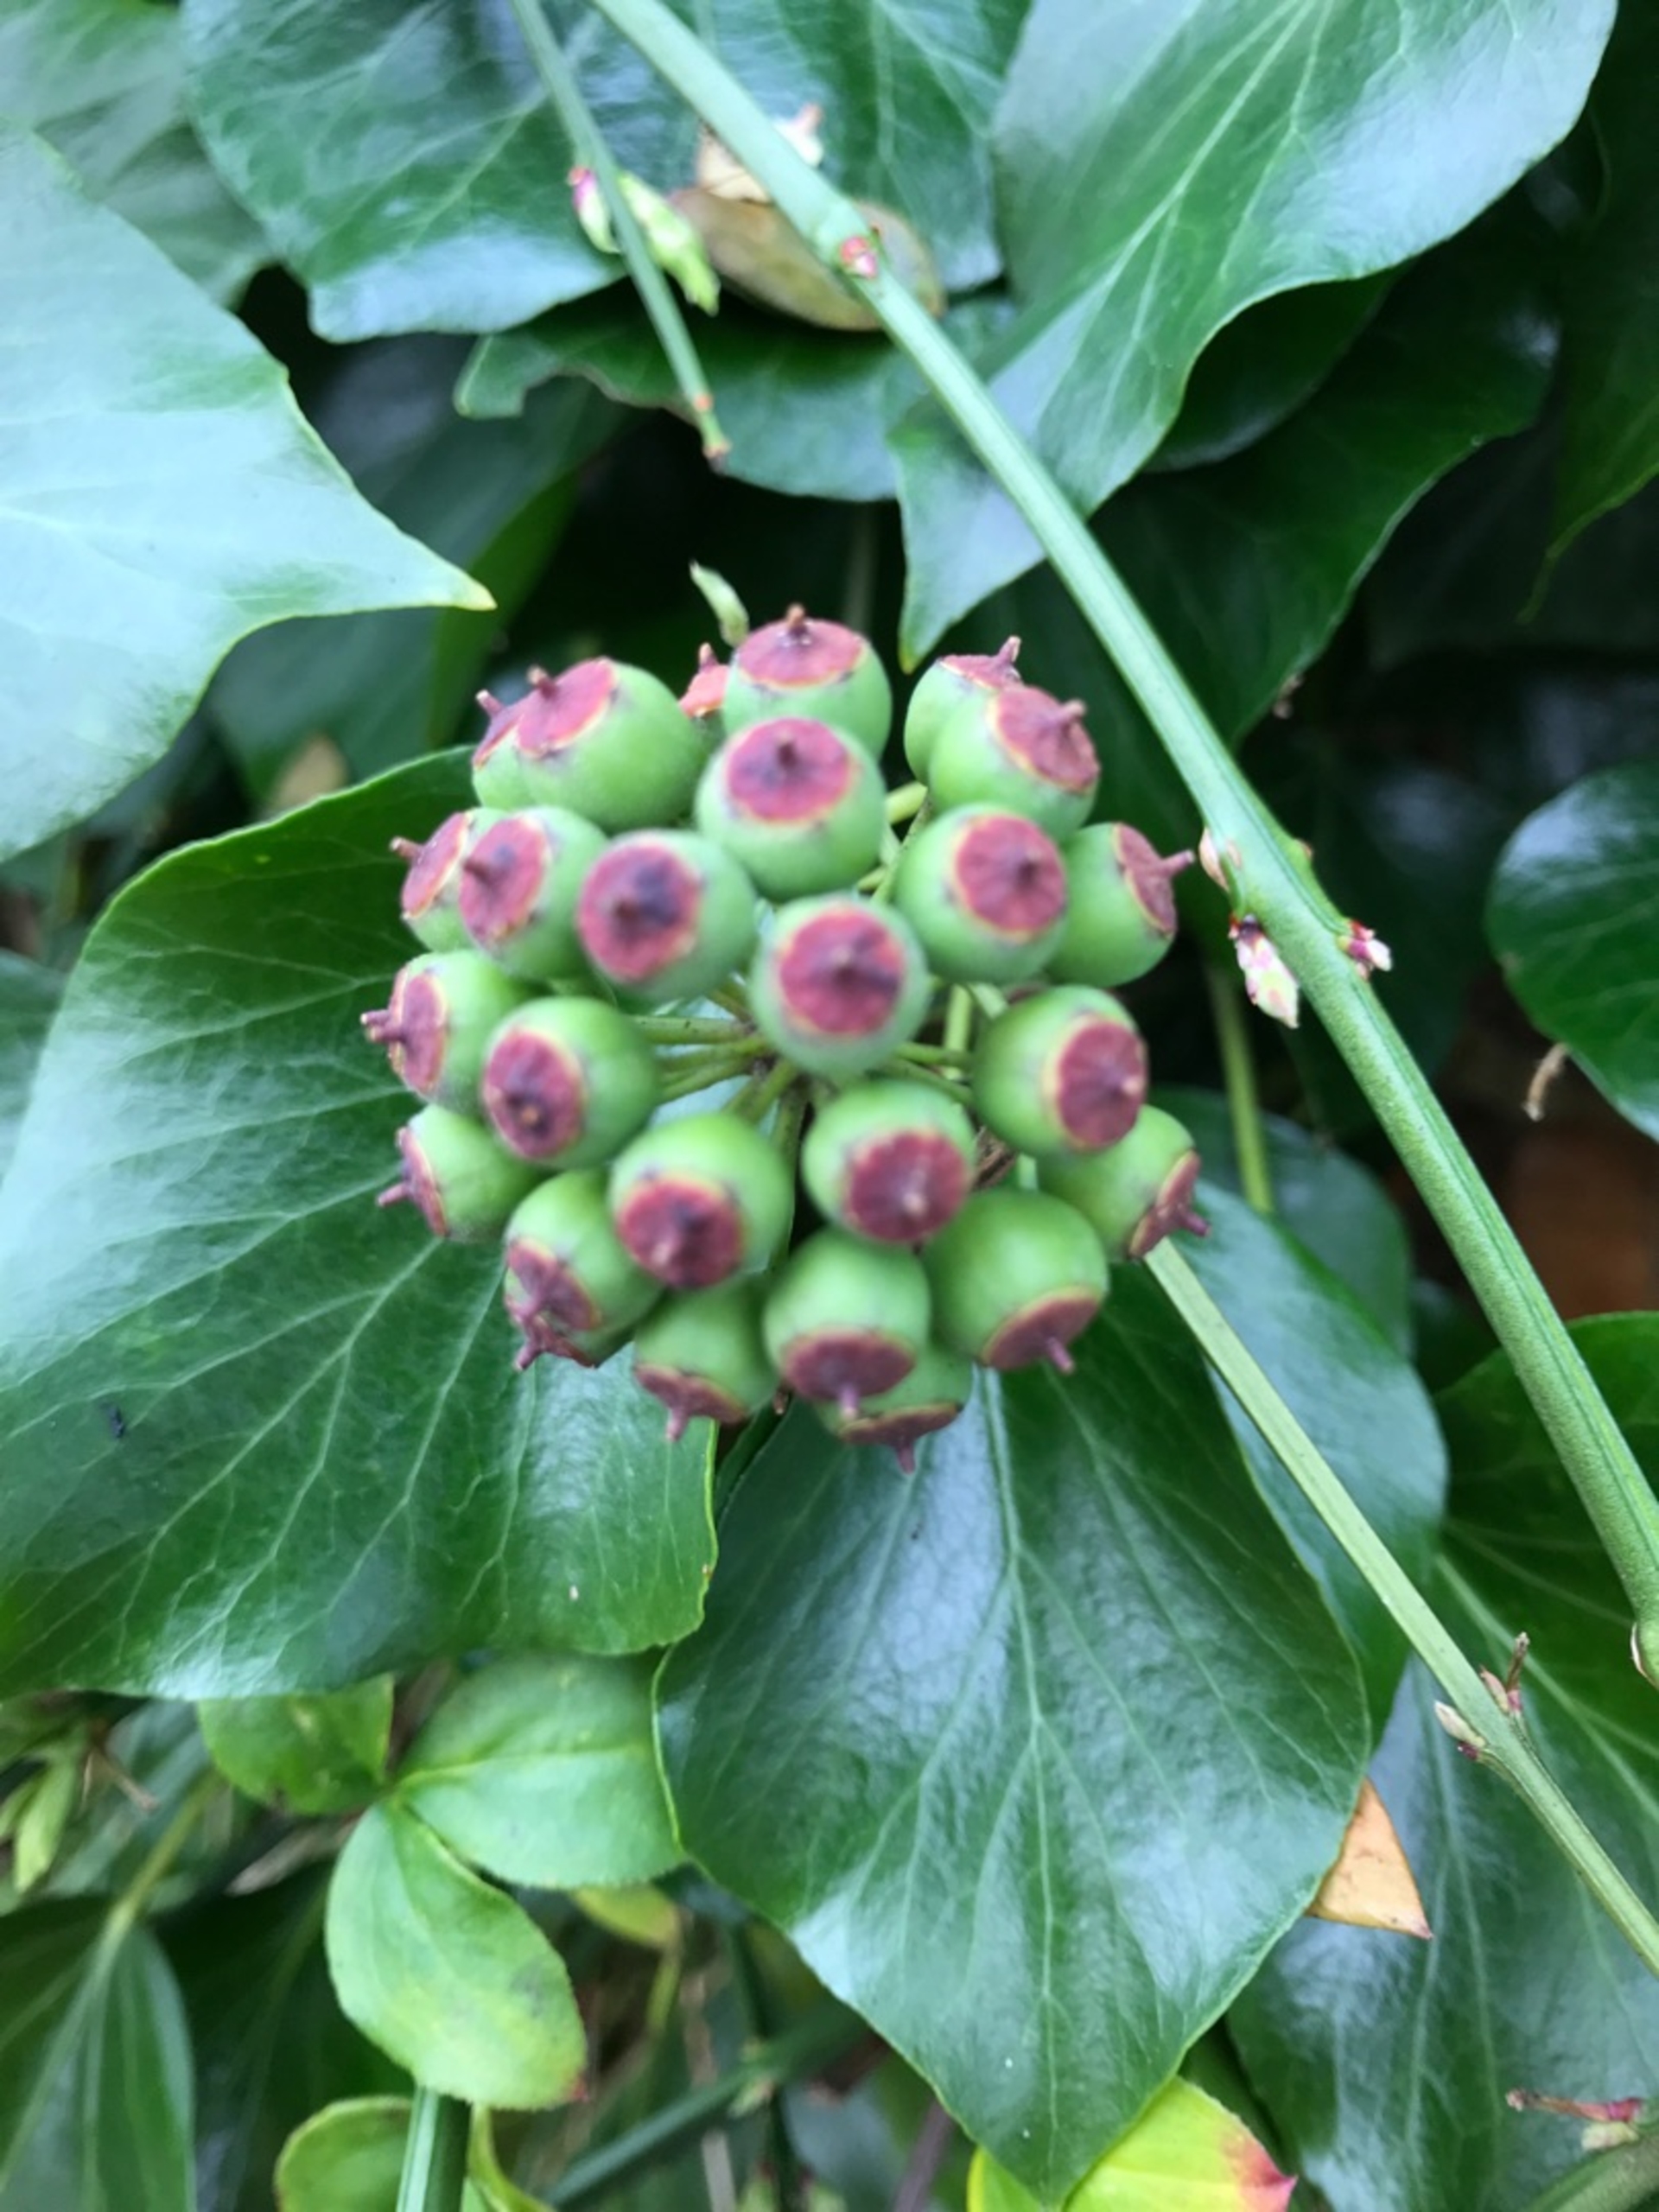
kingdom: Plantae
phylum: Tracheophyta
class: Magnoliopsida
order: Apiales
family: Araliaceae
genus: Hedera
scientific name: Hedera helix
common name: Vedbend
